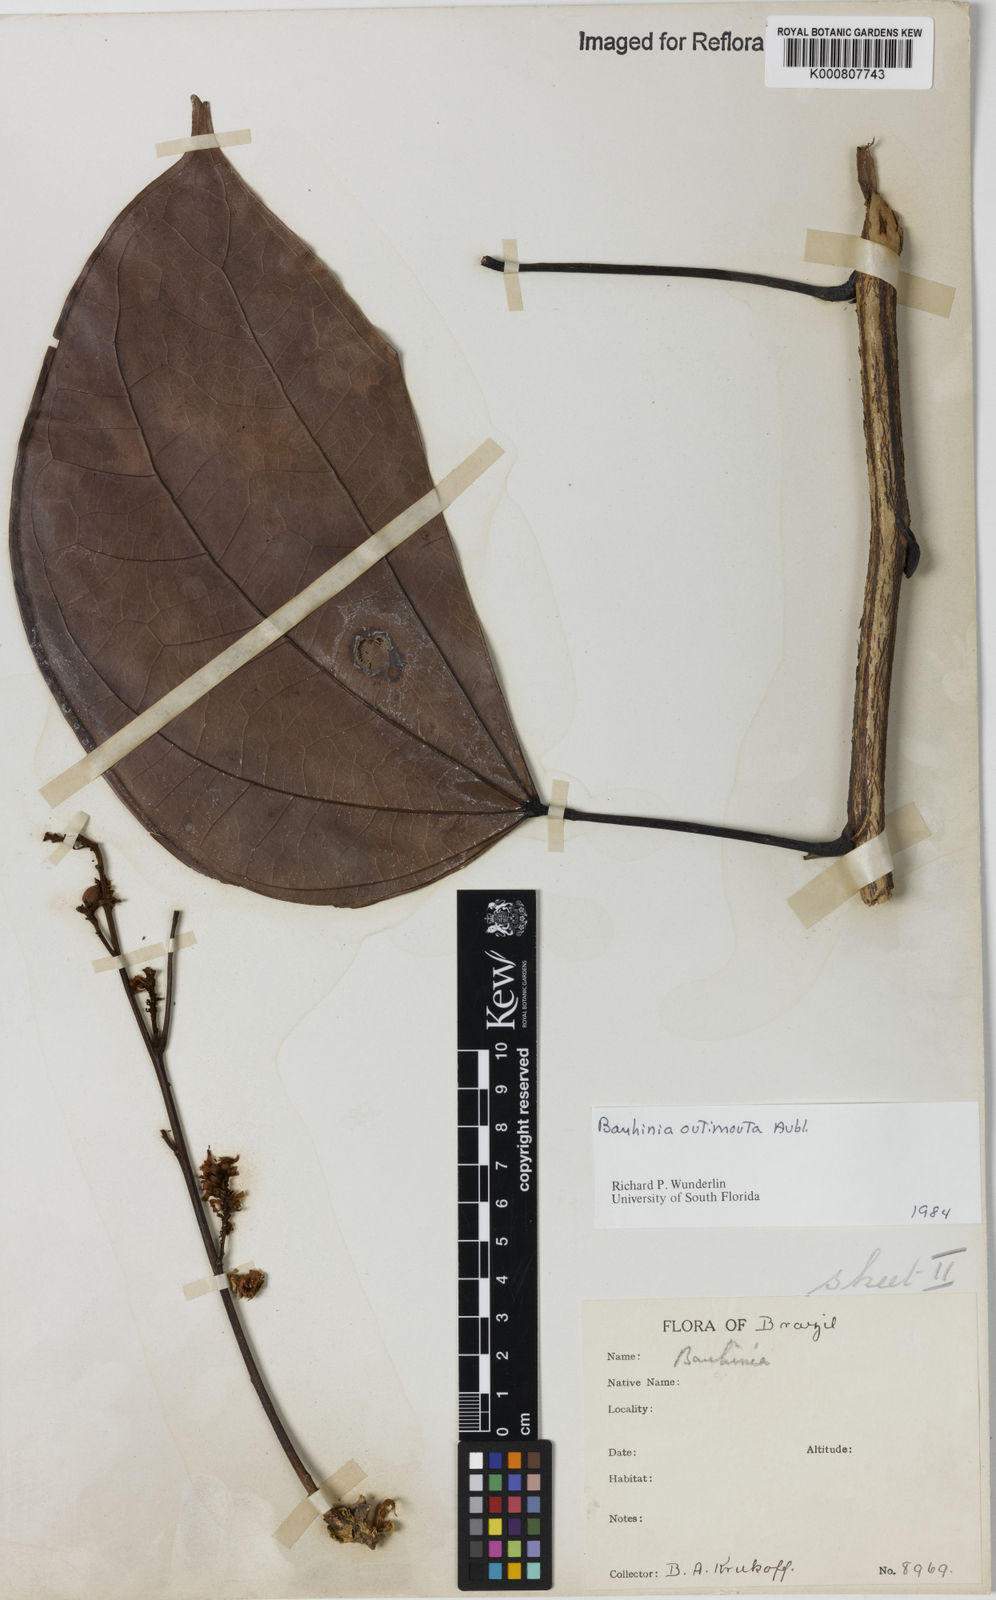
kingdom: Plantae
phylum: Tracheophyta
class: Magnoliopsida
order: Fabales
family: Fabaceae
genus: Schnella
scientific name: Schnella outimouta
